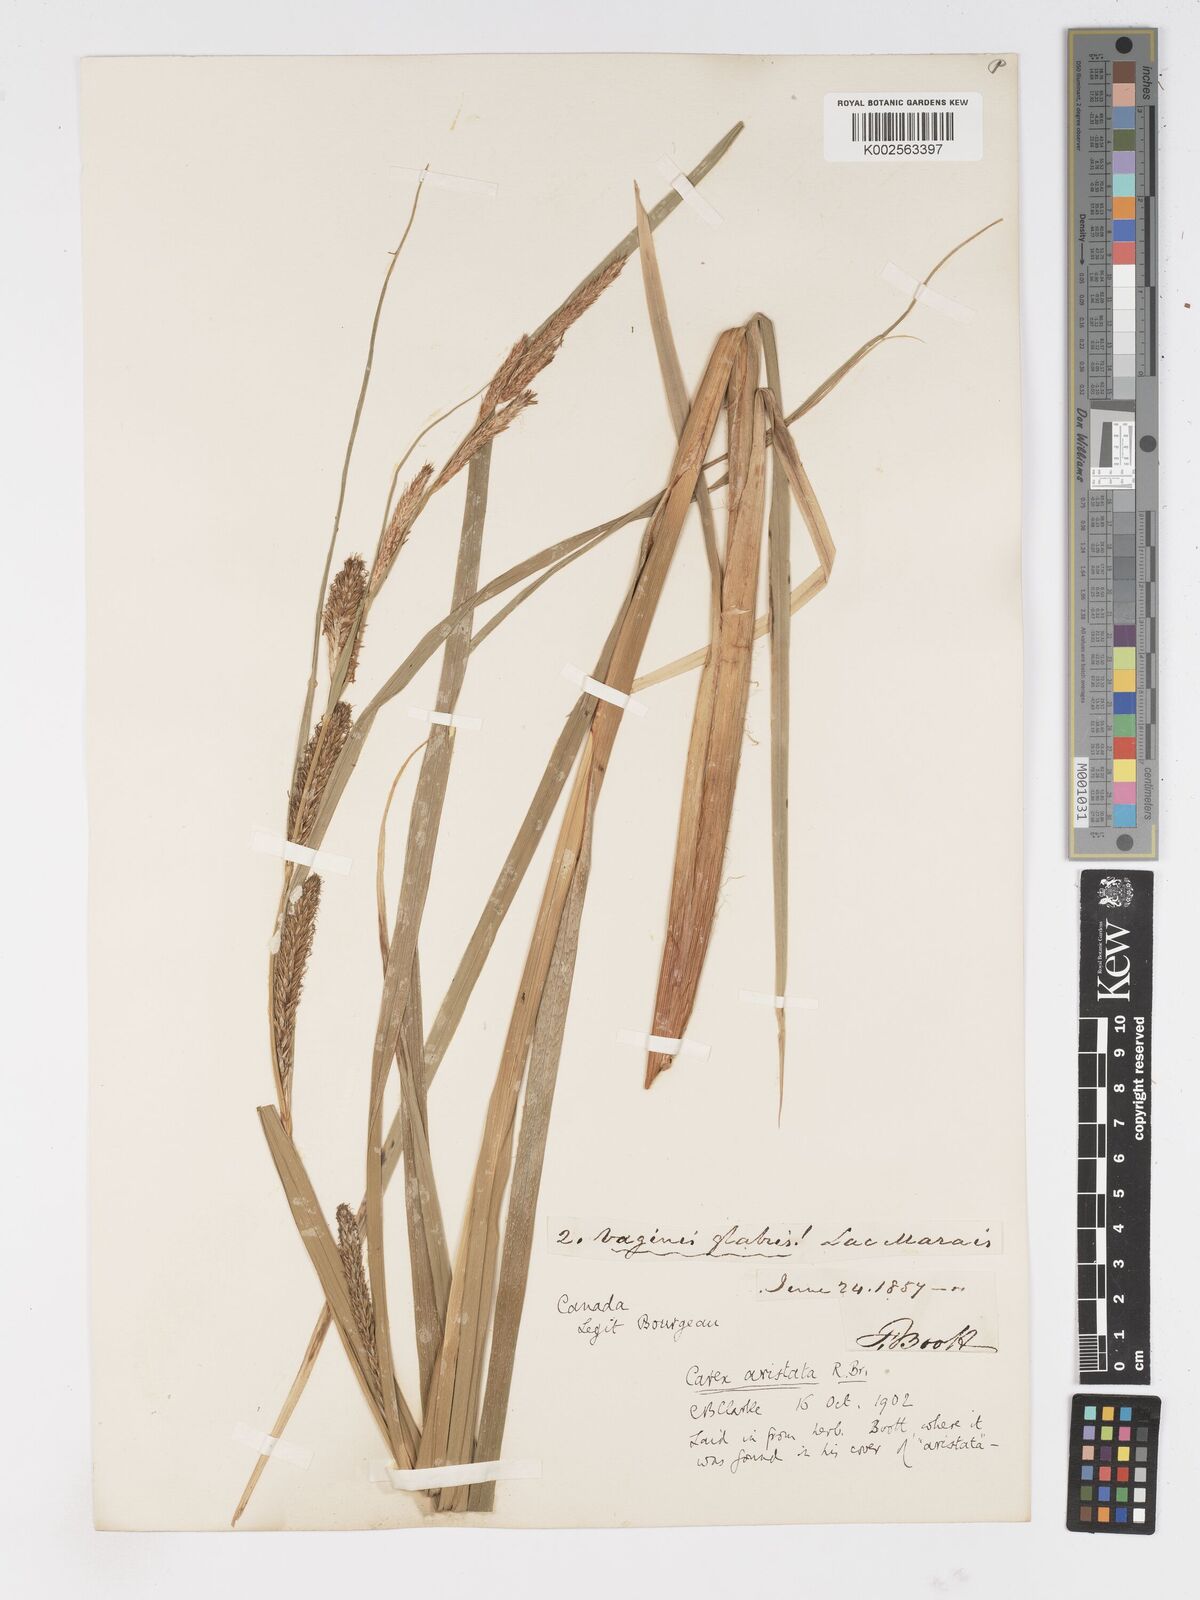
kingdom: Plantae
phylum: Tracheophyta
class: Liliopsida
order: Poales
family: Cyperaceae
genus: Carex
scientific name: Carex atherodes
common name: Wheat sedge
